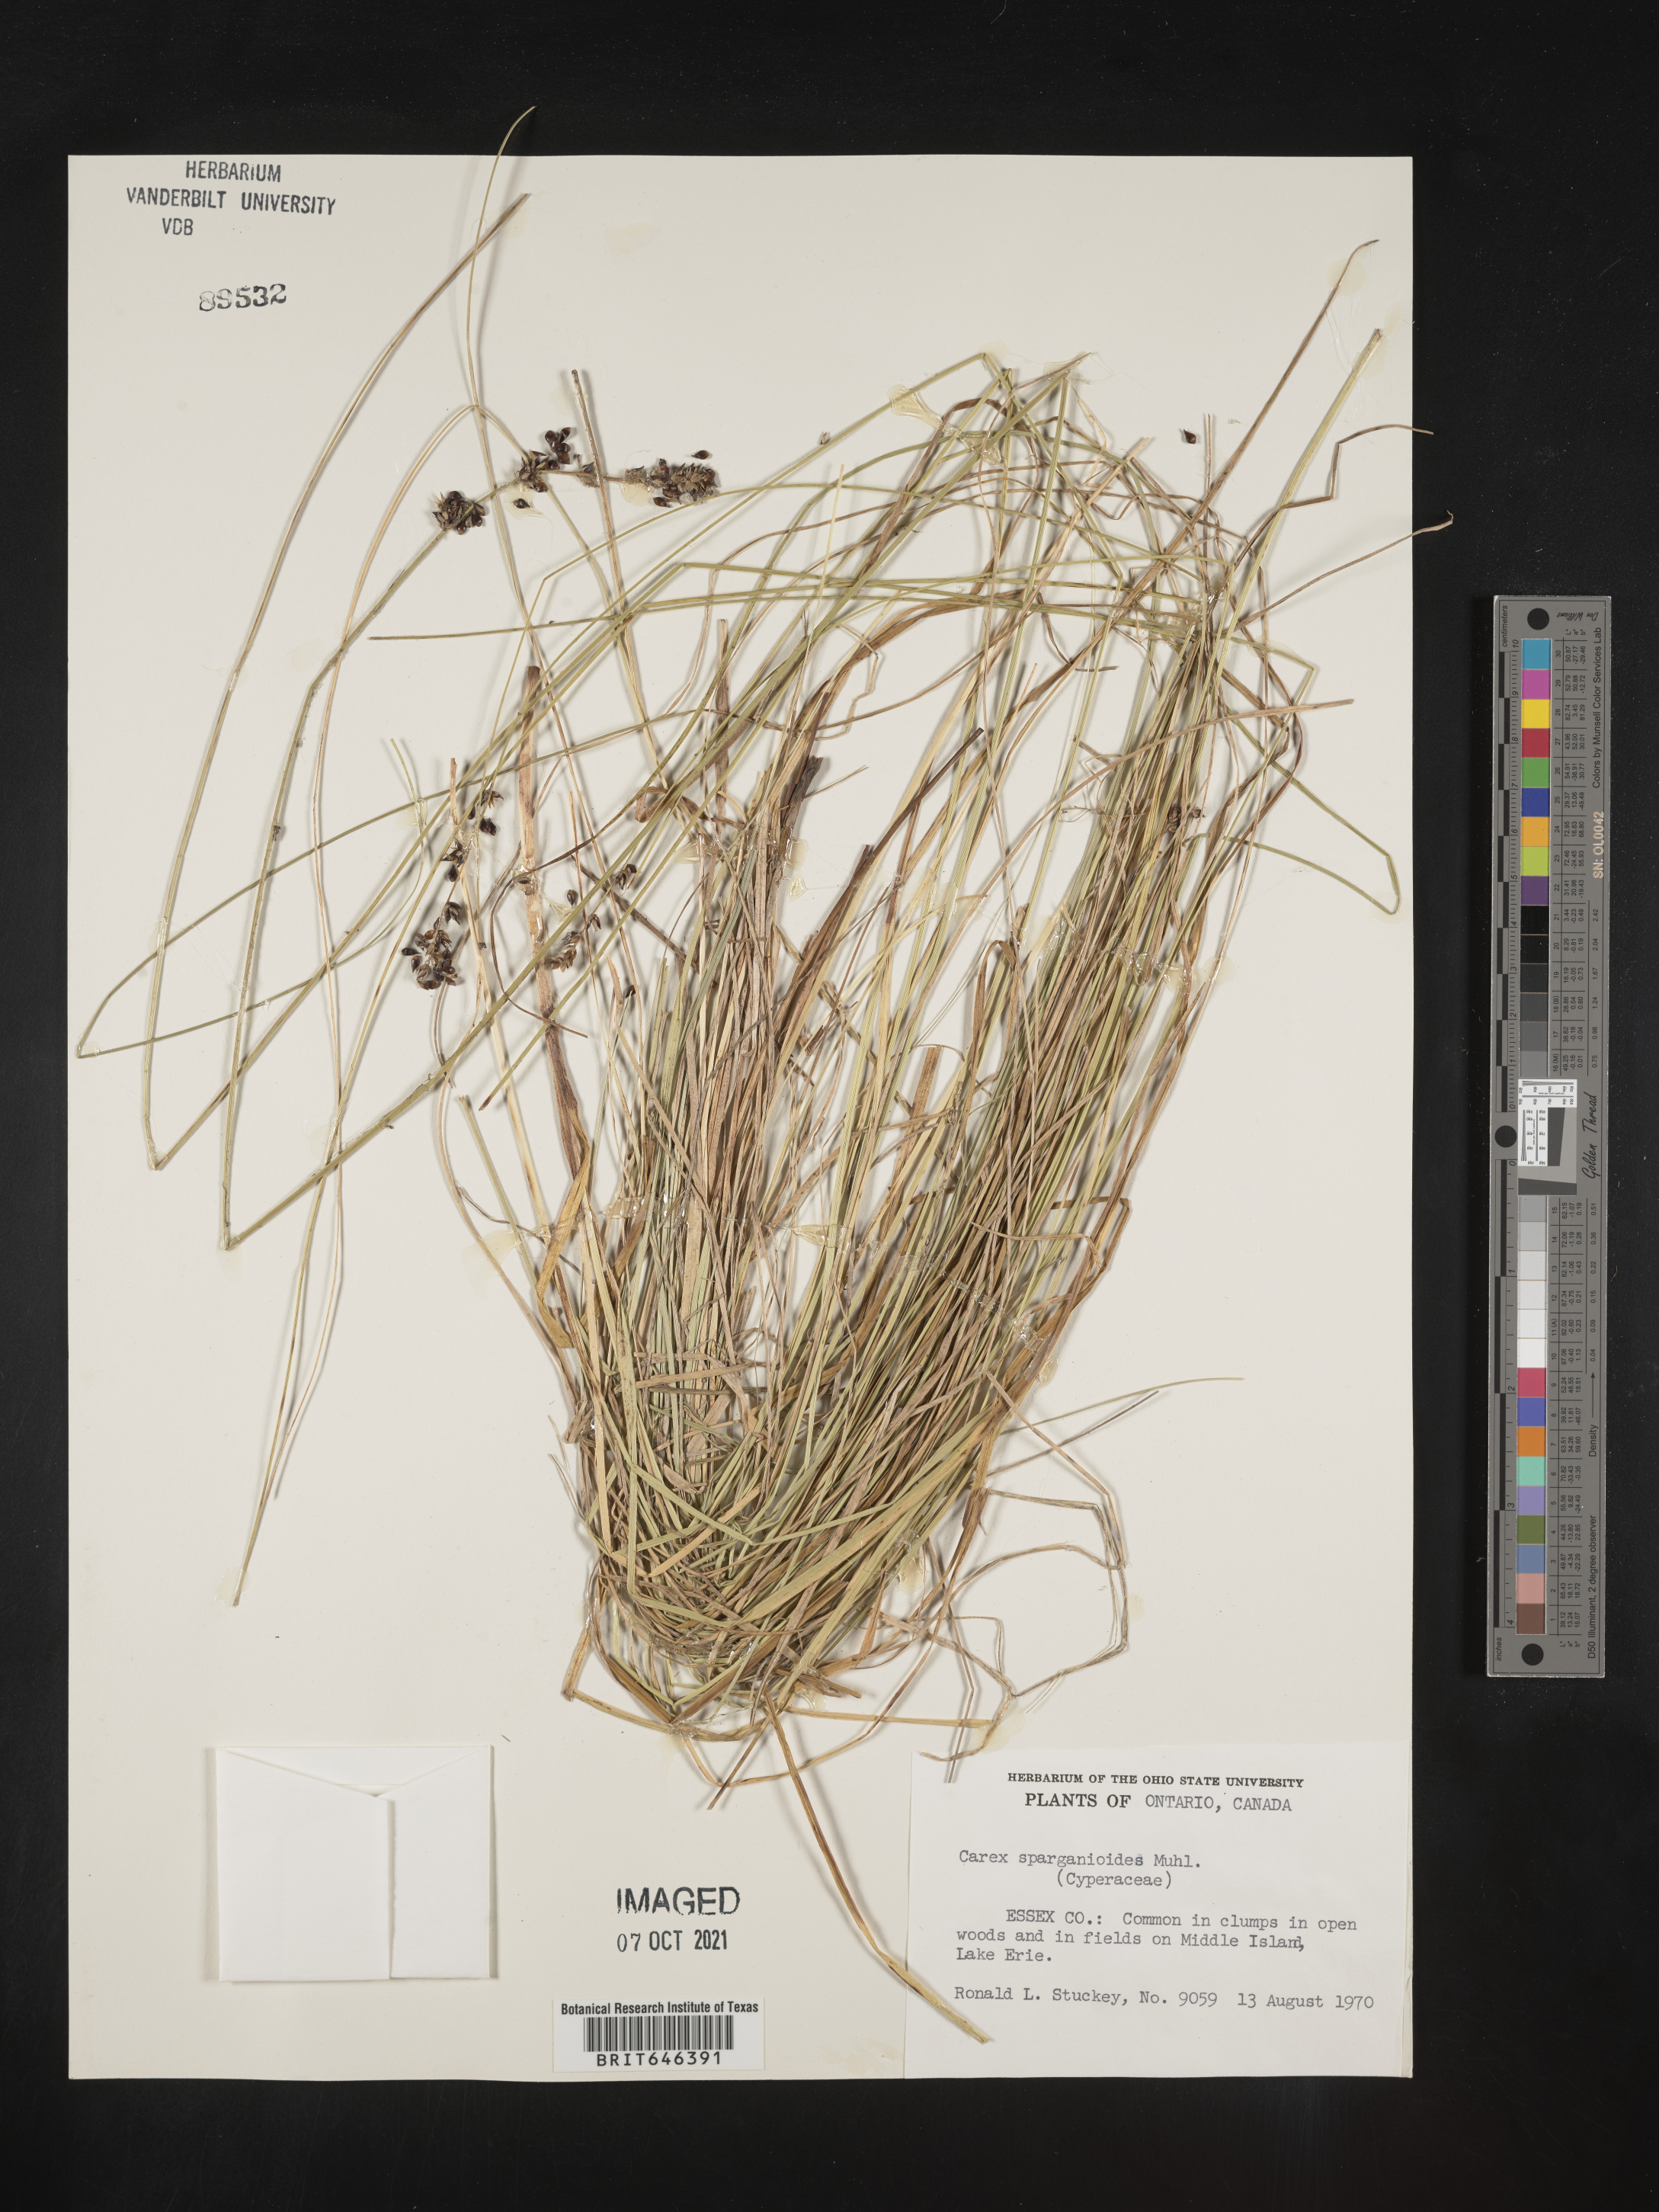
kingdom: Plantae
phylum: Tracheophyta
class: Liliopsida
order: Poales
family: Cyperaceae
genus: Carex
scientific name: Carex sparganioides
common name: Burreed sedge
